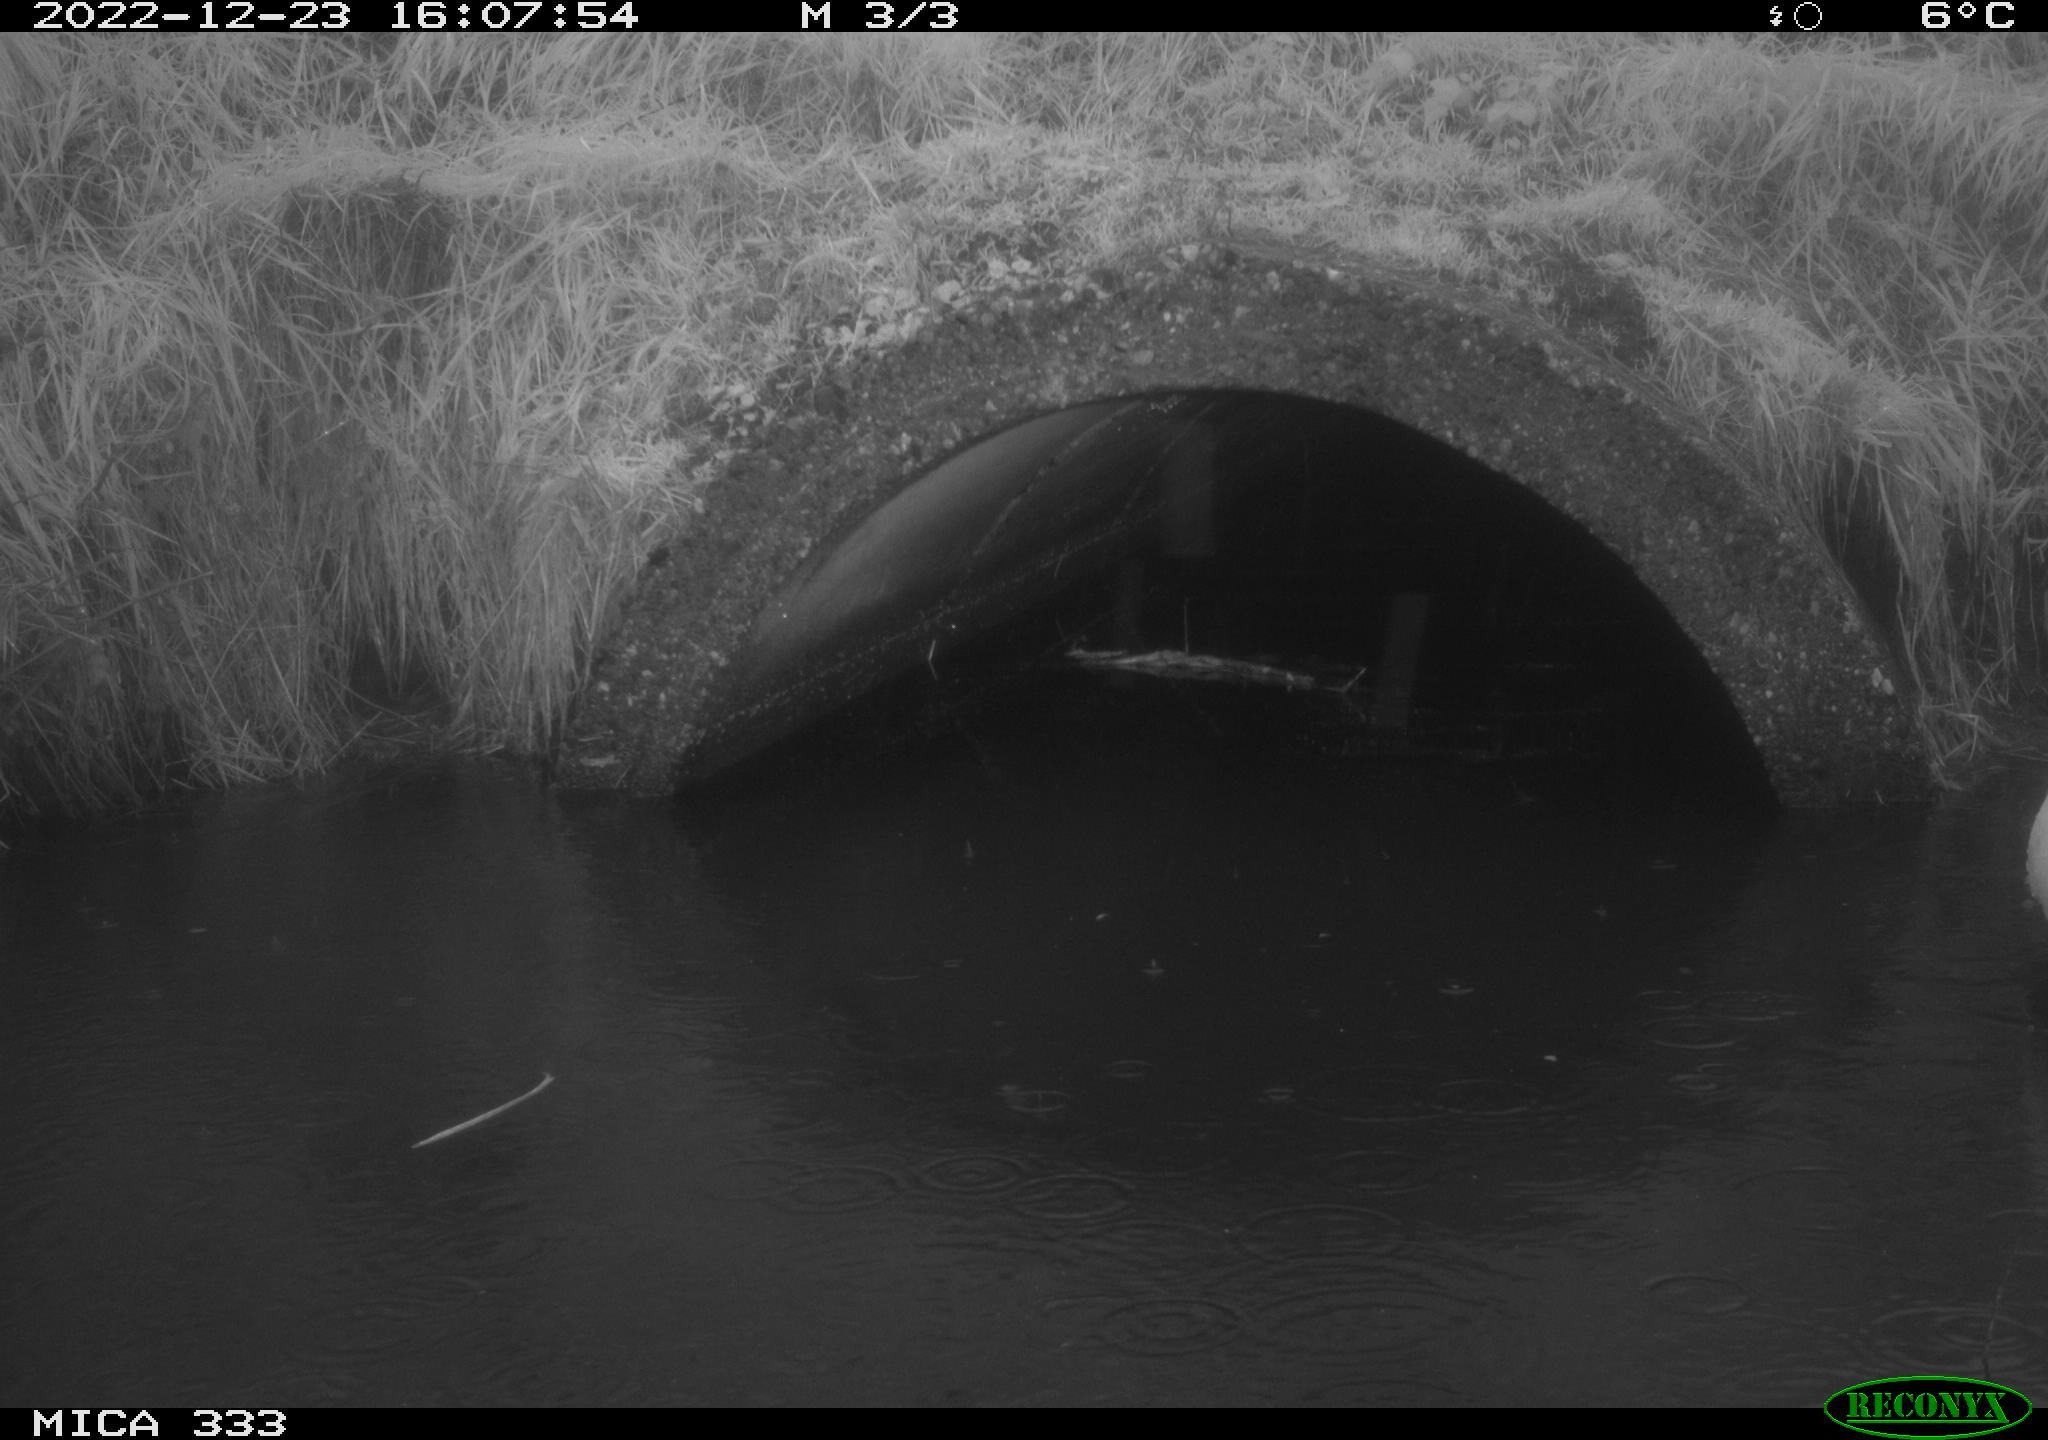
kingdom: Animalia
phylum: Chordata
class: Aves
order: Pelecaniformes
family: Ardeidae
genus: Ardea
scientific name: Ardea alba
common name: Great egret
